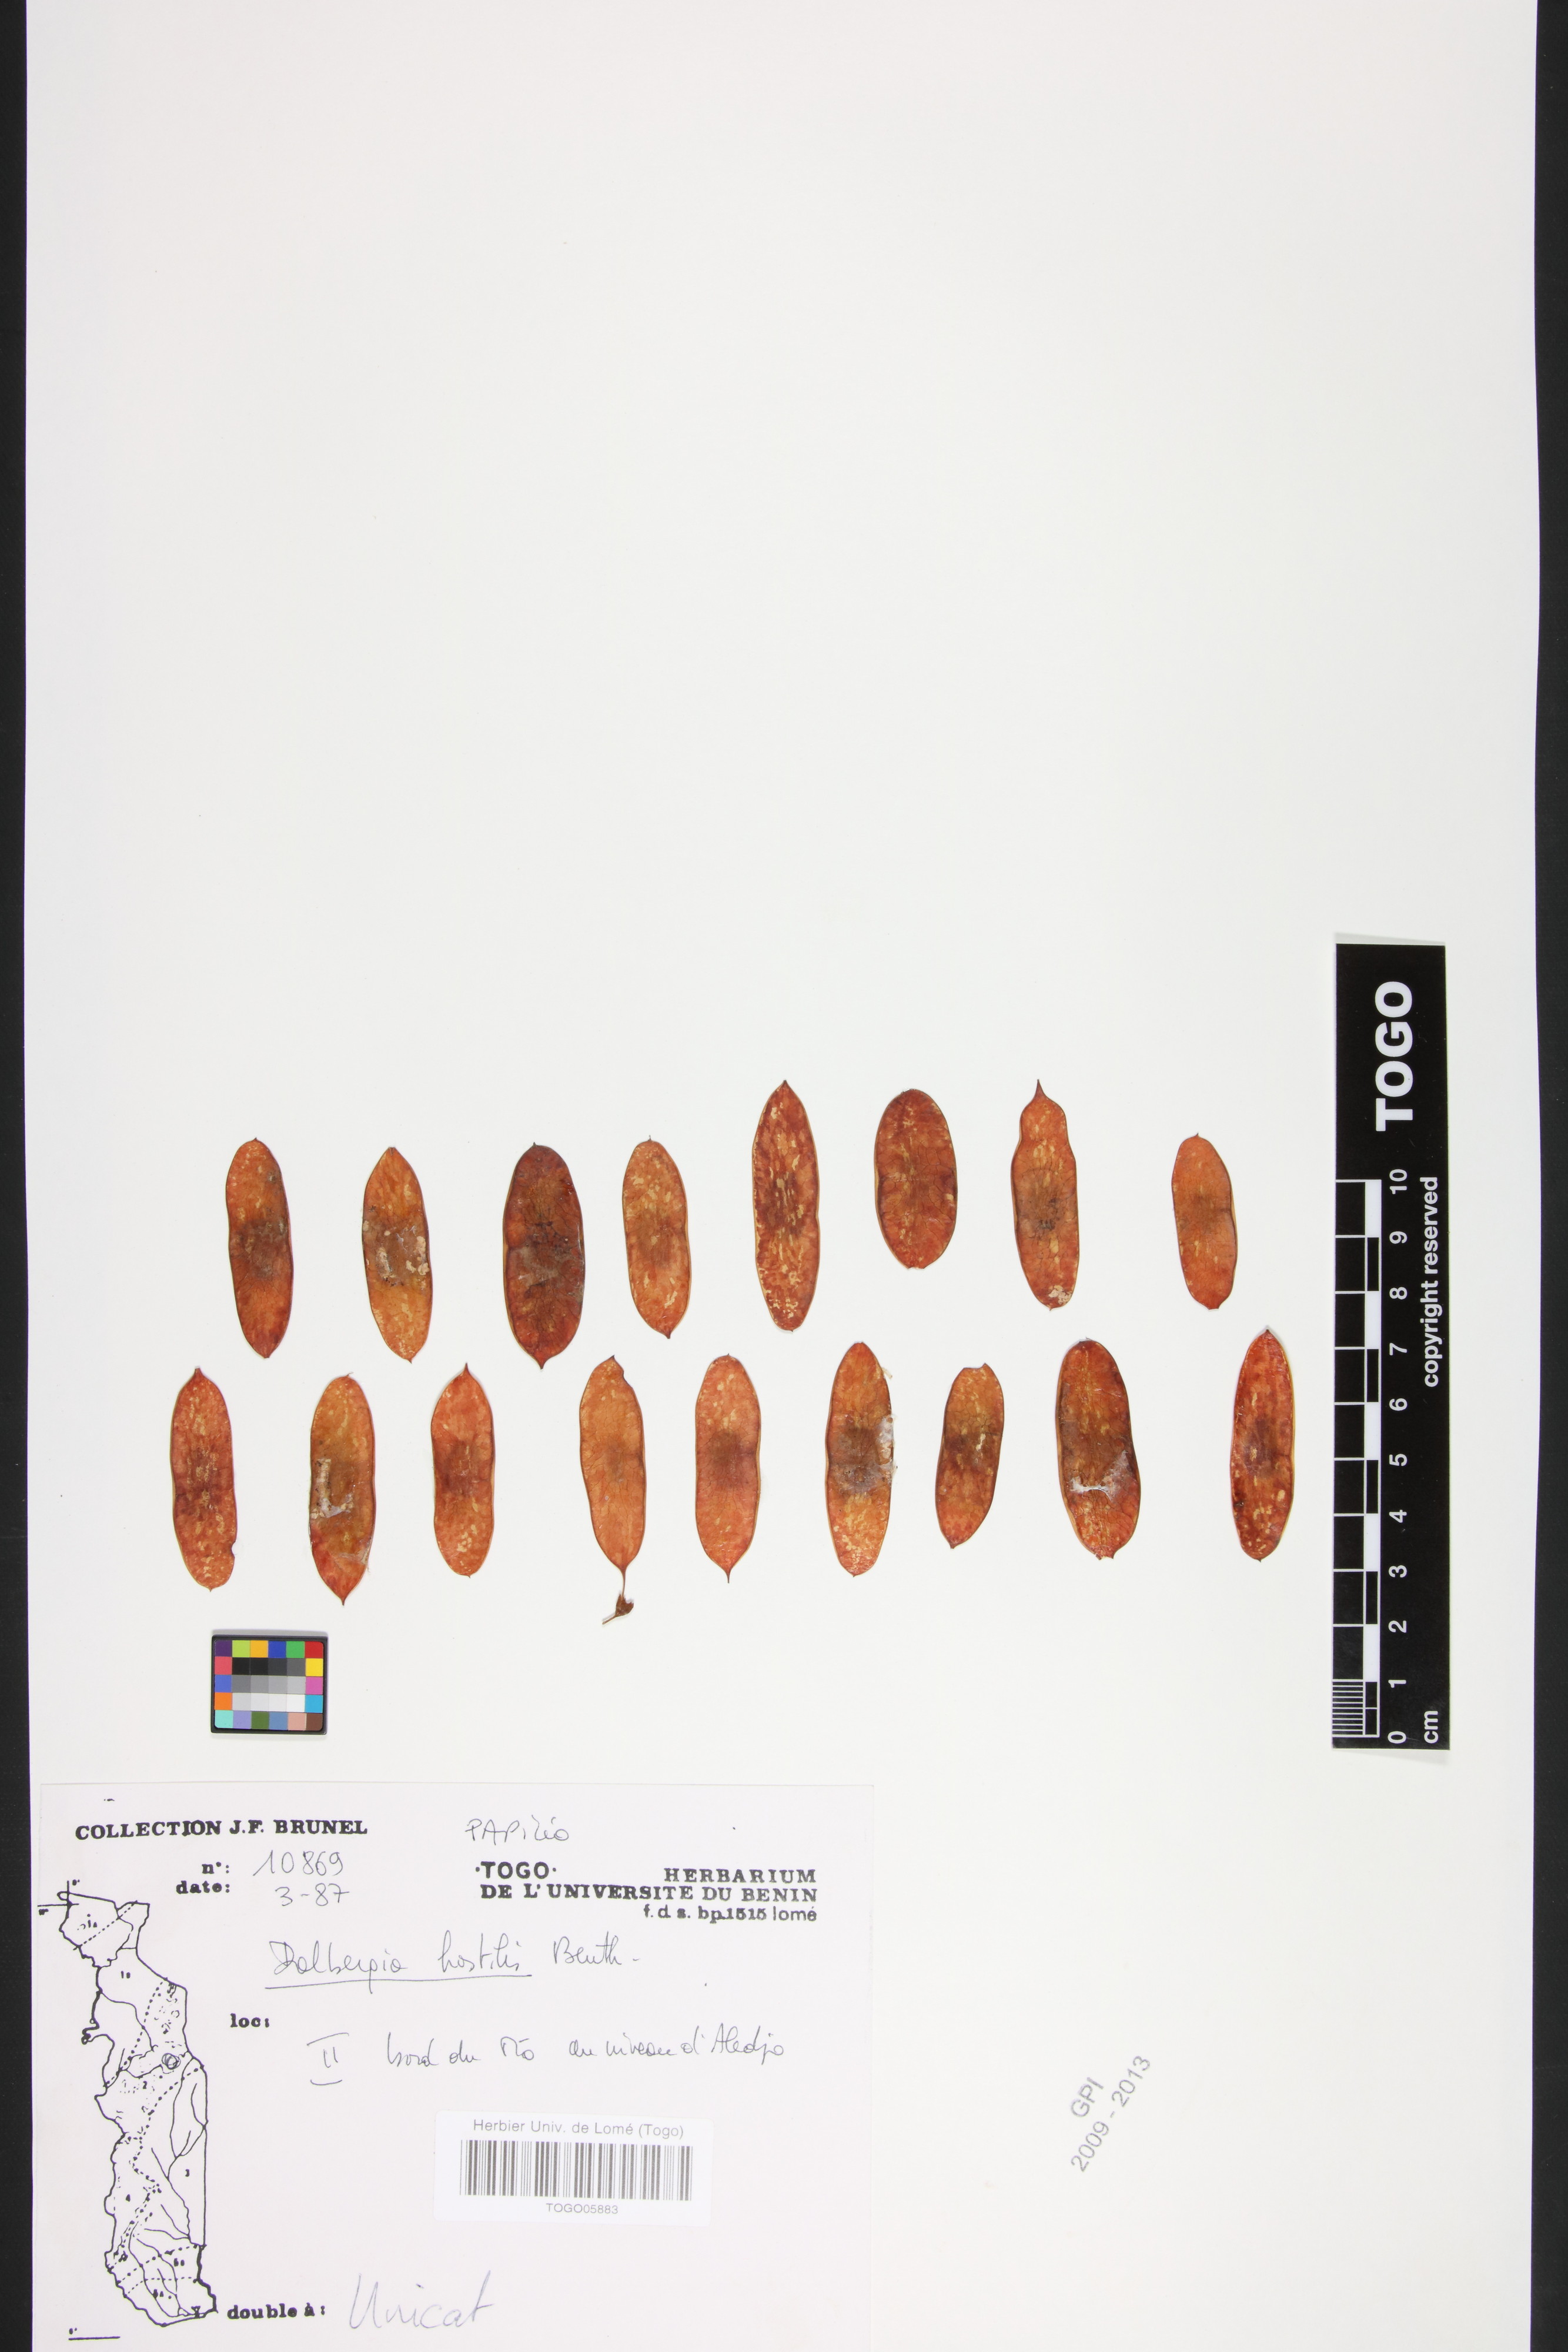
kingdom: Plantae
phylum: Tracheophyta
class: Magnoliopsida
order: Fabales
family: Fabaceae
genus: Dalbergia
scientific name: Dalbergia hostilis
